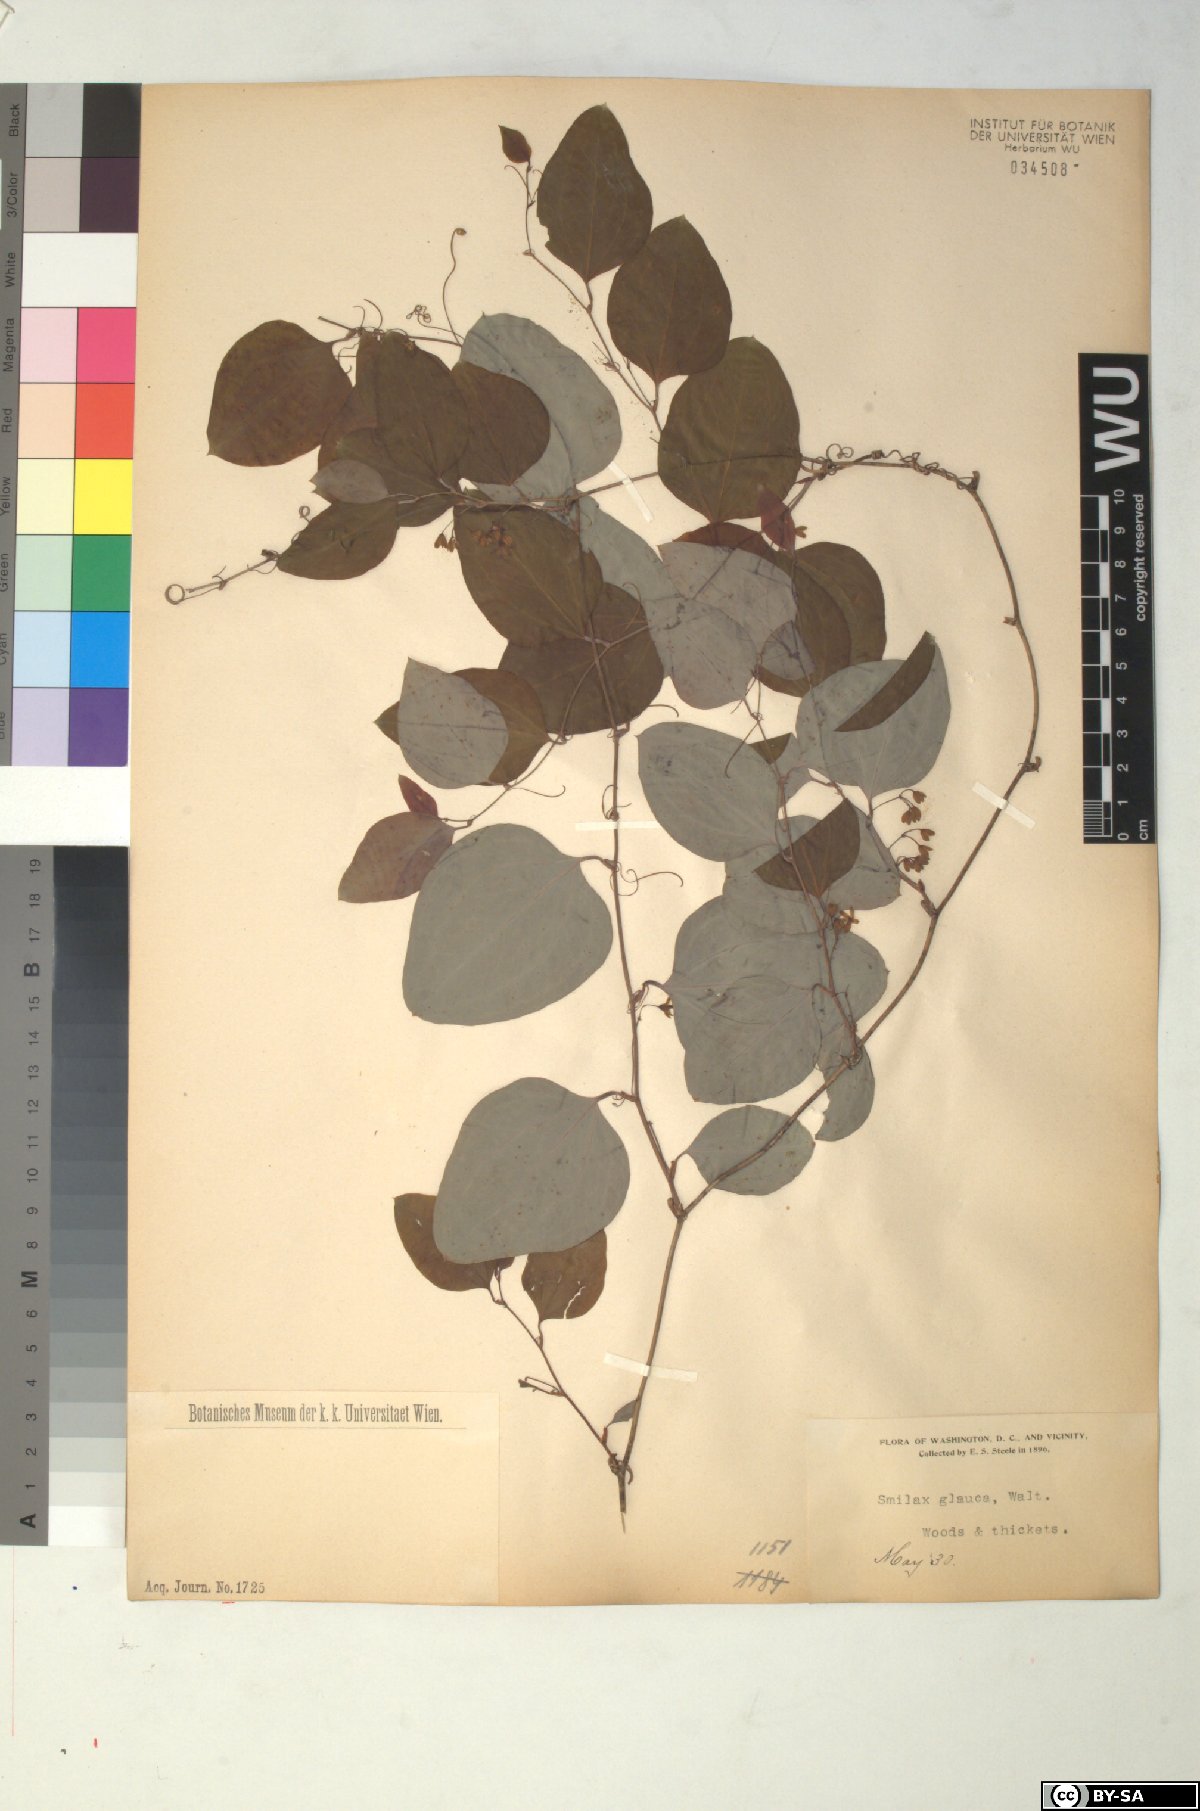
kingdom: Plantae
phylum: Tracheophyta
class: Liliopsida
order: Liliales
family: Smilacaceae
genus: Smilax
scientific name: Smilax glauca
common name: Cat greenbrier
